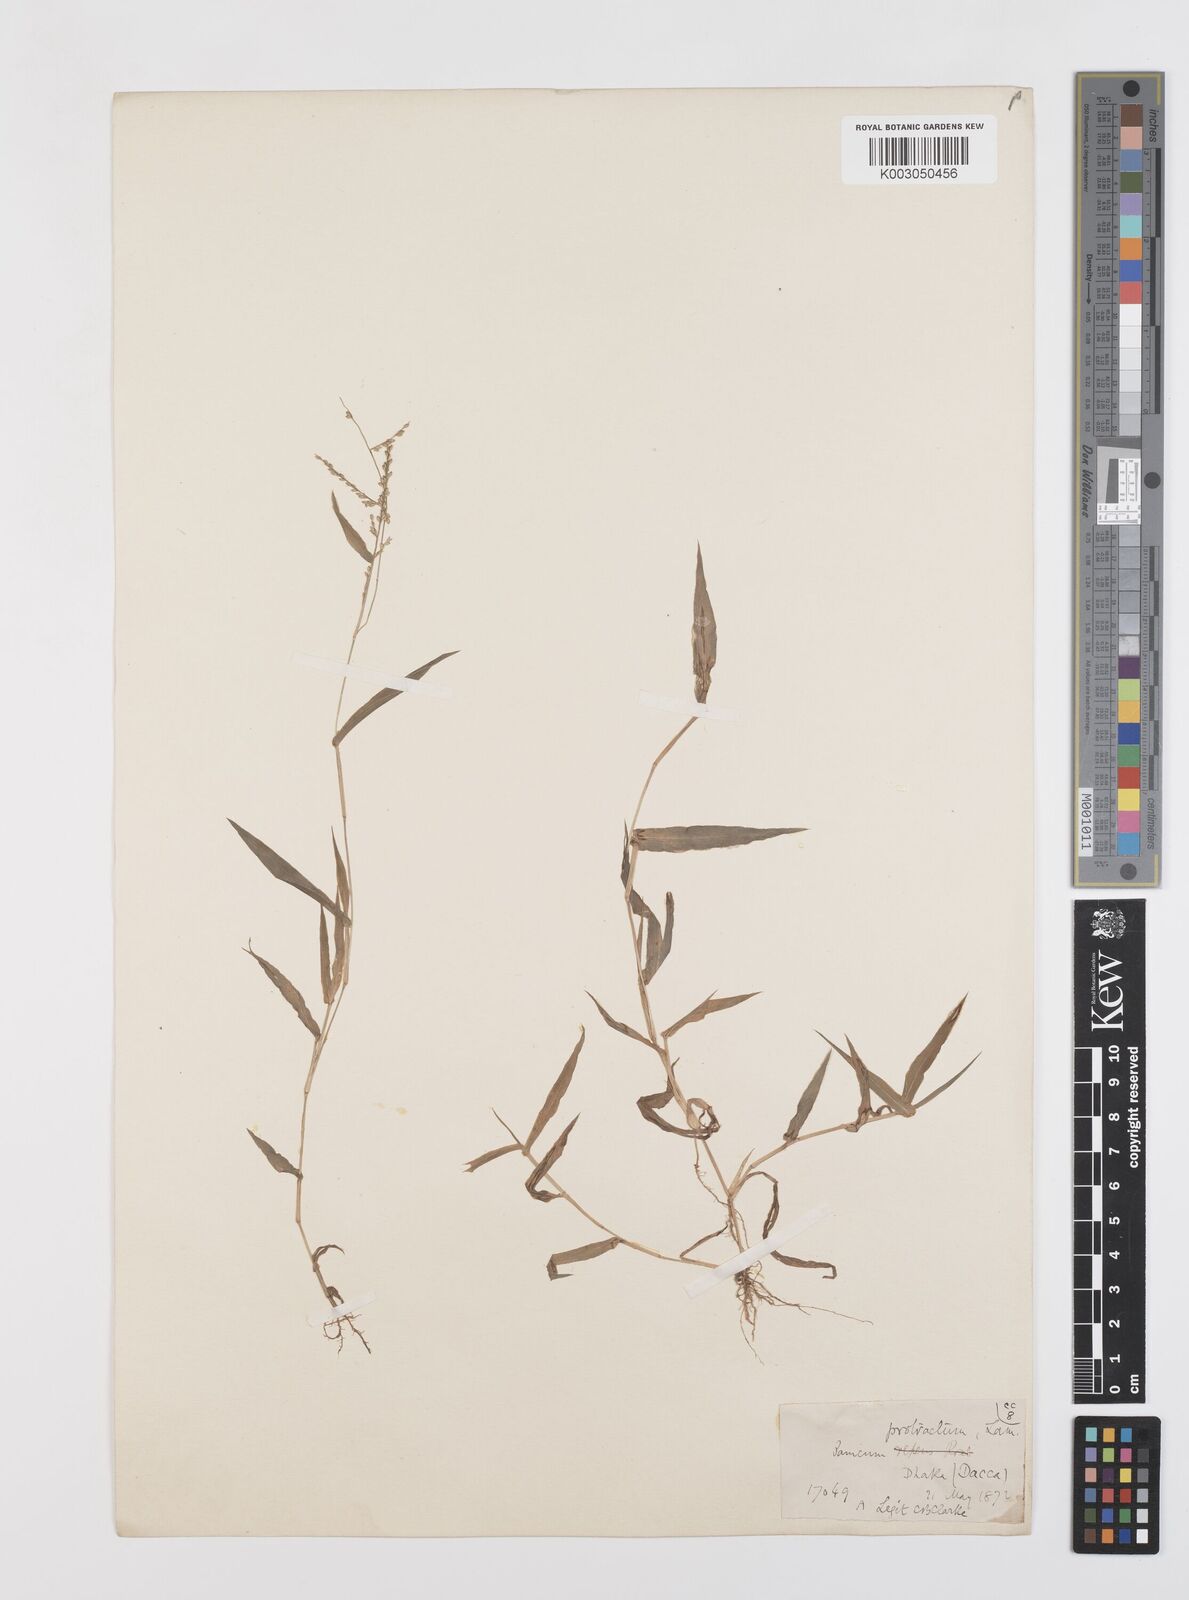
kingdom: Plantae
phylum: Tracheophyta
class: Liliopsida
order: Poales
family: Poaceae
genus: Urochloa
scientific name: Urochloa reptans
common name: Sprawling signalgrass
